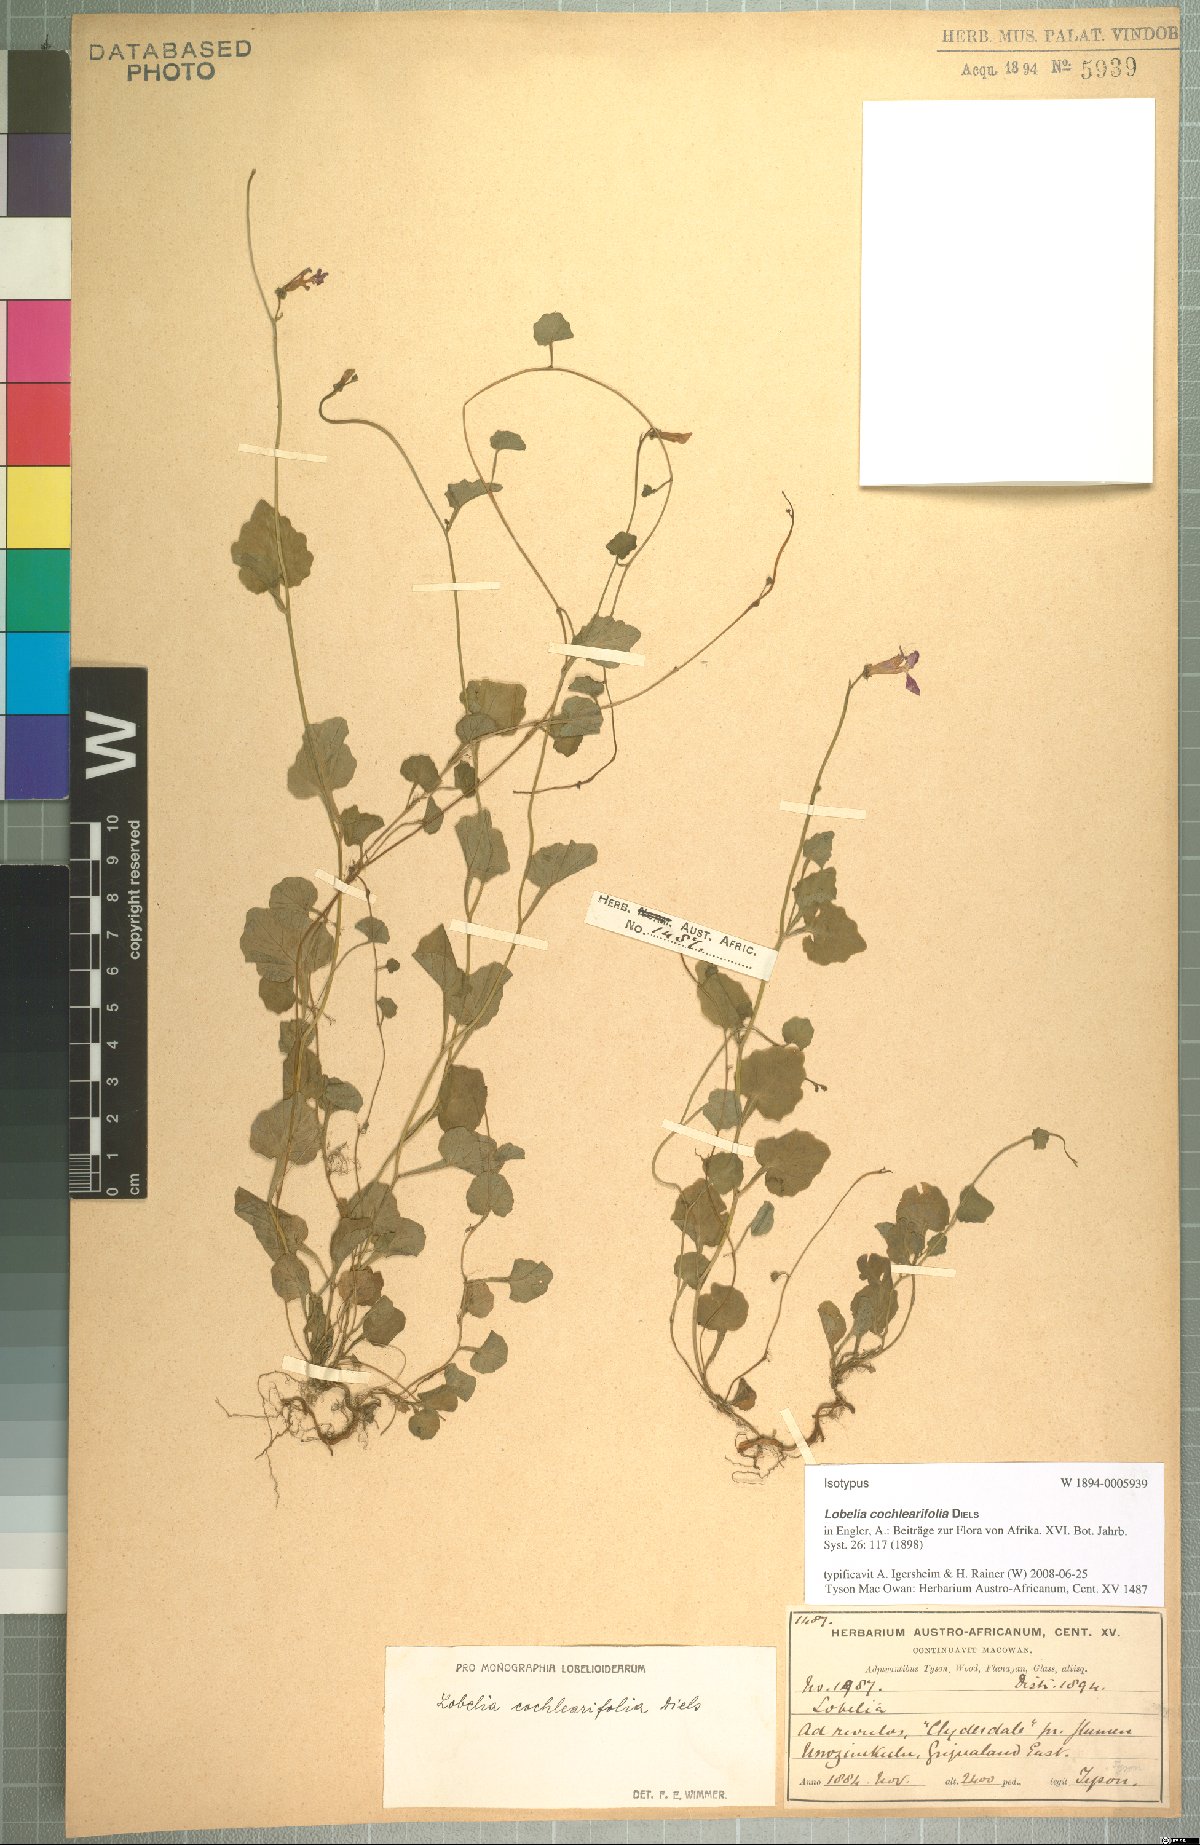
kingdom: Plantae
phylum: Tracheophyta
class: Magnoliopsida
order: Asterales
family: Campanulaceae
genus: Lobelia
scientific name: Lobelia cochleariifolia
